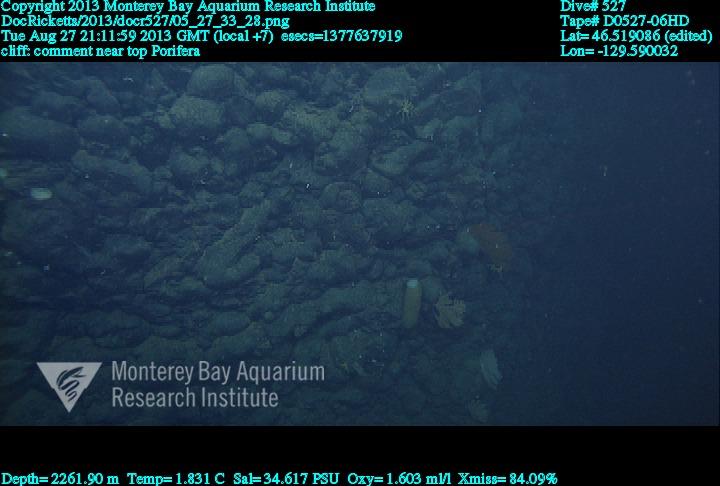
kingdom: Animalia
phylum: Porifera
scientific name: Porifera
